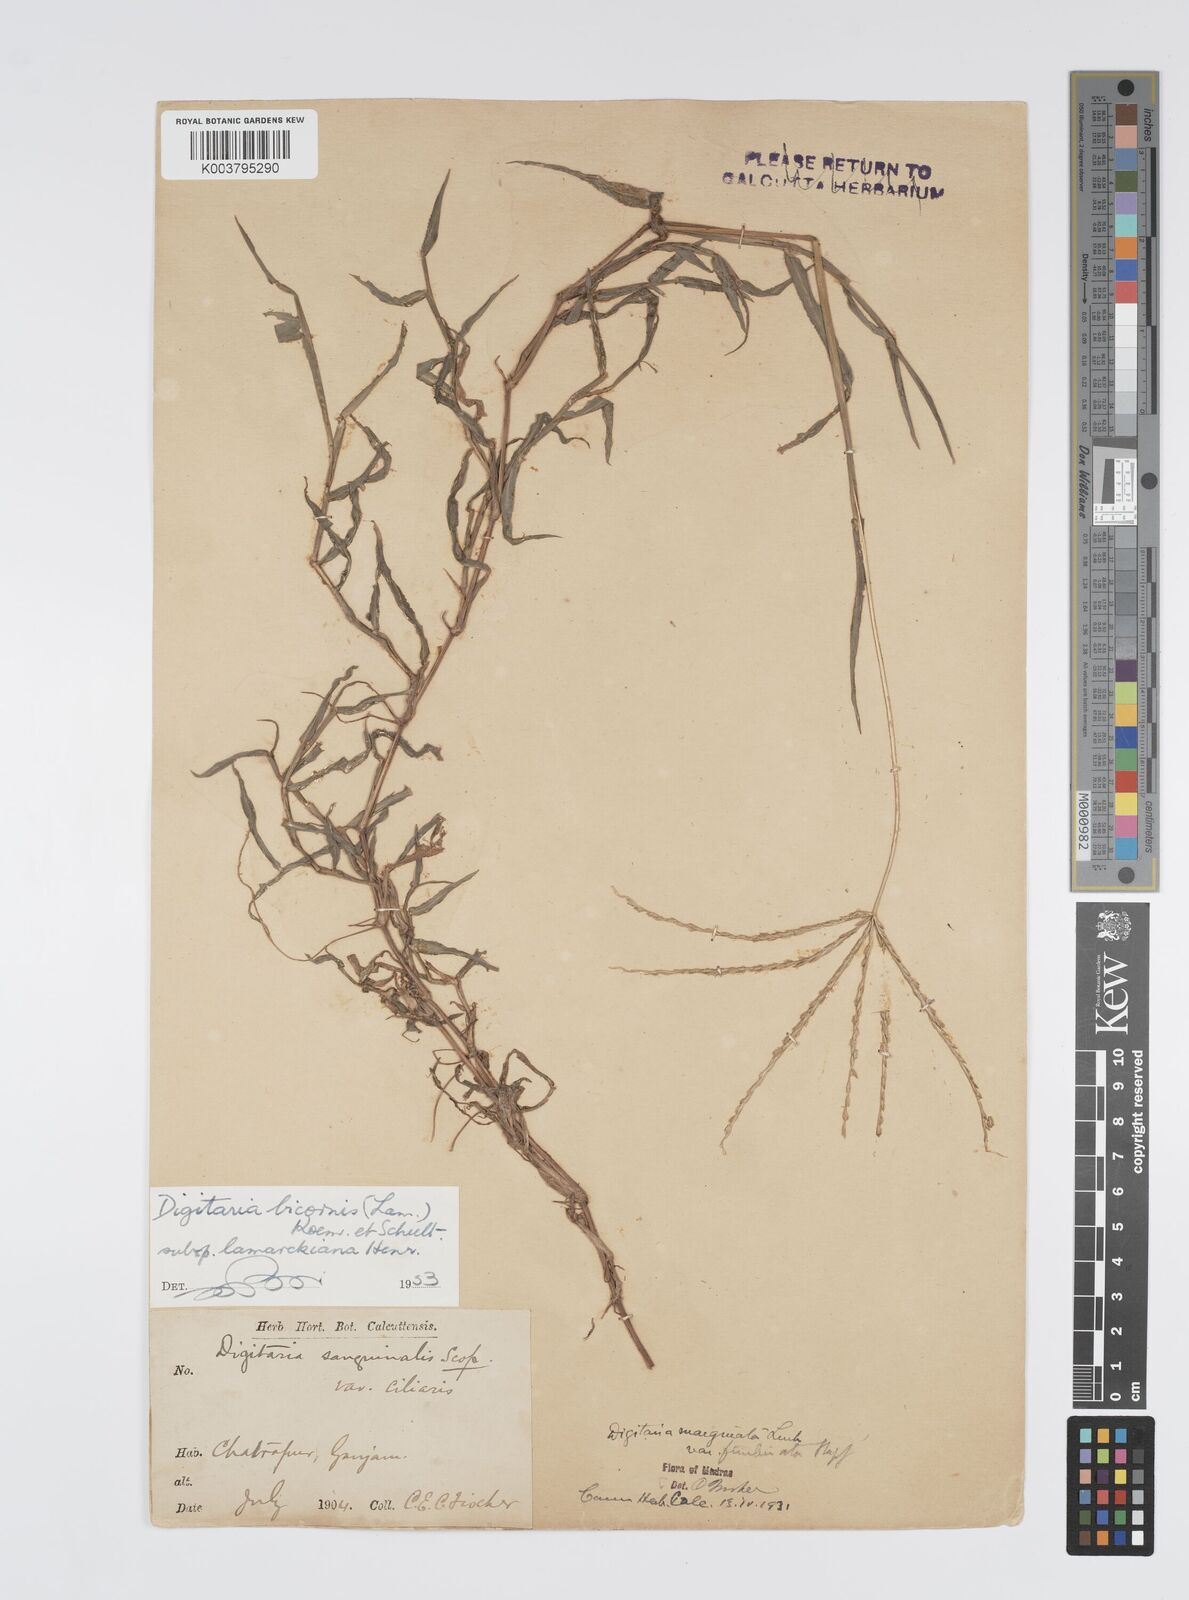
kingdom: Plantae
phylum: Tracheophyta
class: Liliopsida
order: Poales
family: Poaceae
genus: Digitaria
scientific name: Digitaria spec
